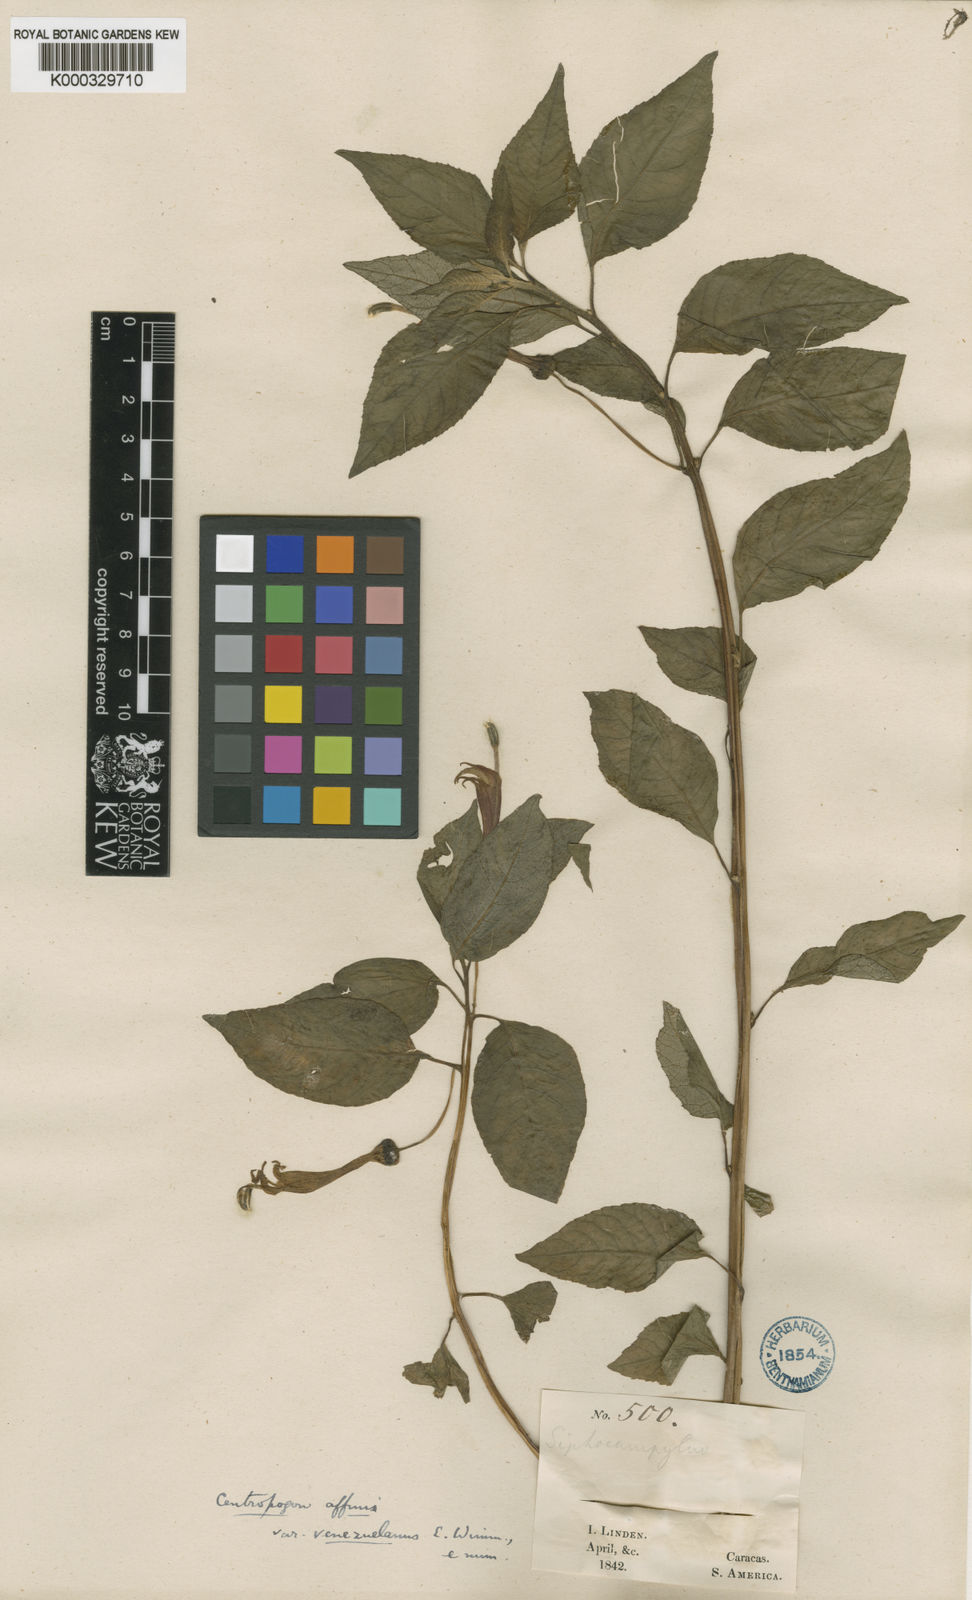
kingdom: Plantae
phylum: Tracheophyta
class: Magnoliopsida
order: Asterales
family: Campanulaceae
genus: Centropogon
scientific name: Centropogon grandidentatus
